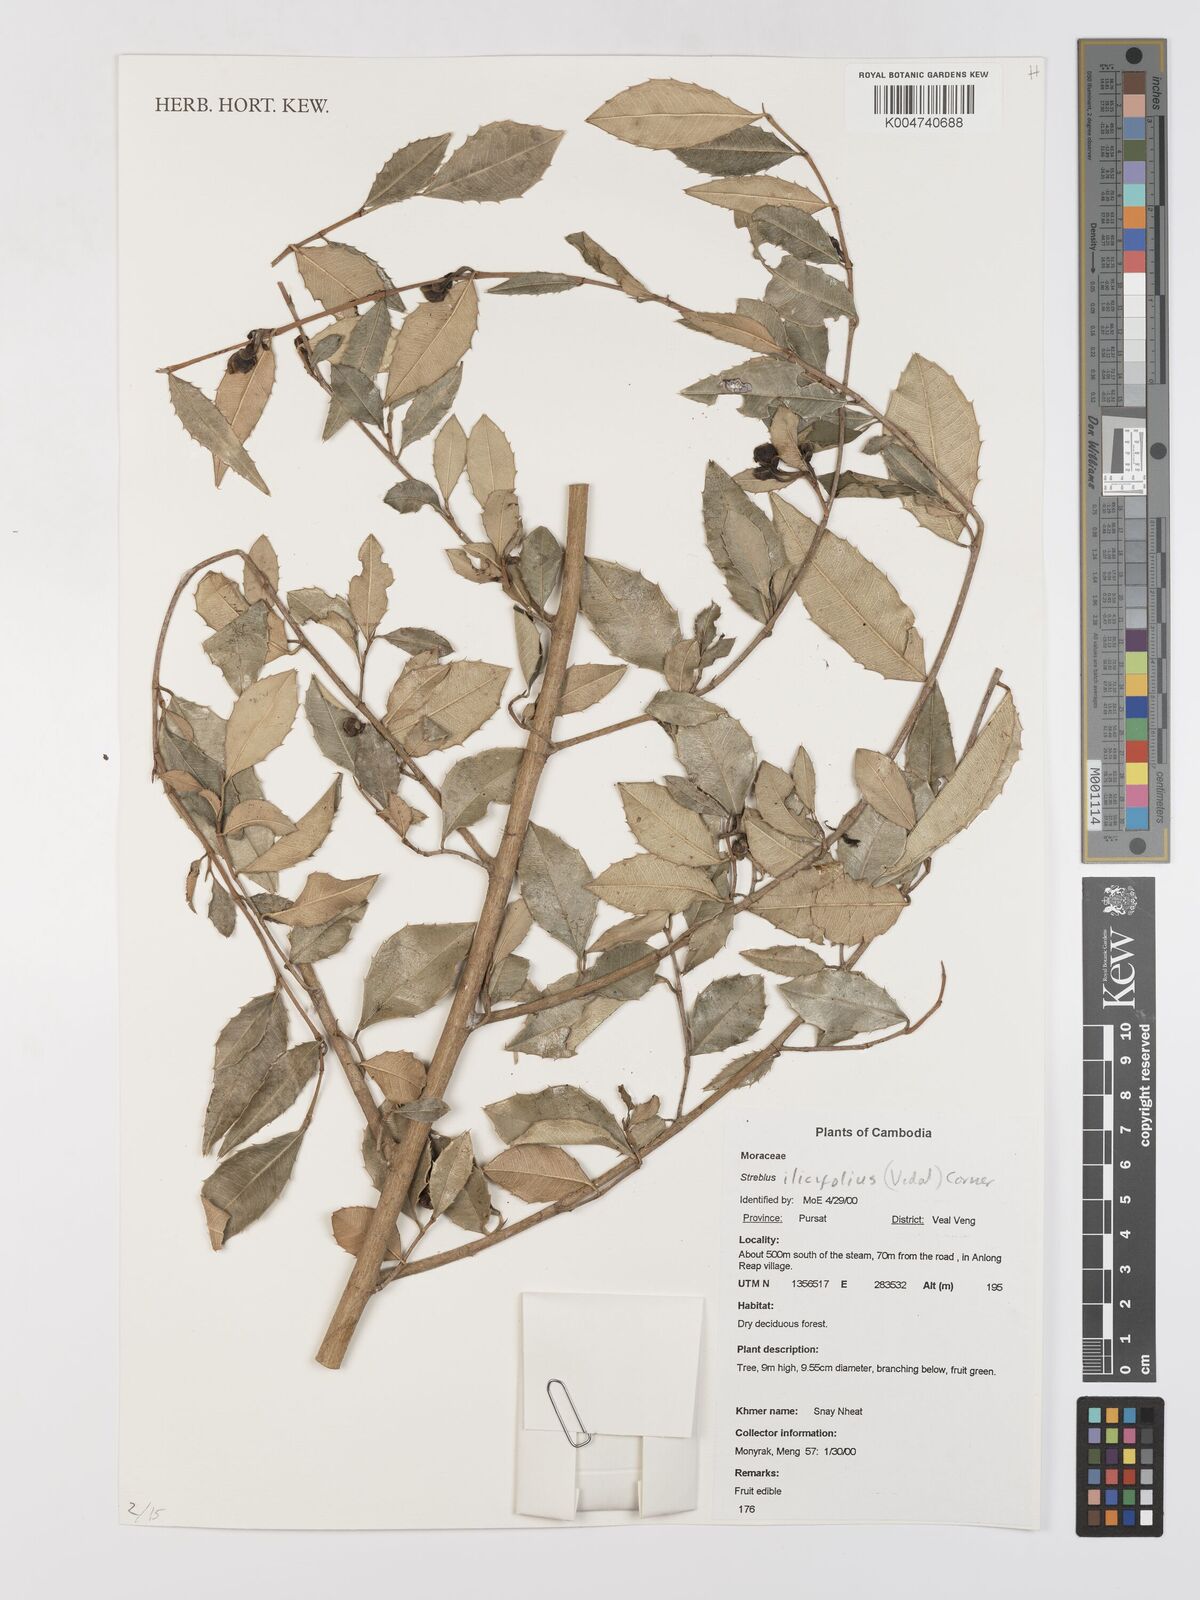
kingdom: Plantae
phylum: Tracheophyta
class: Magnoliopsida
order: Rosales
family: Moraceae
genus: Taxotrophis
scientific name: Taxotrophis ilicifolia
